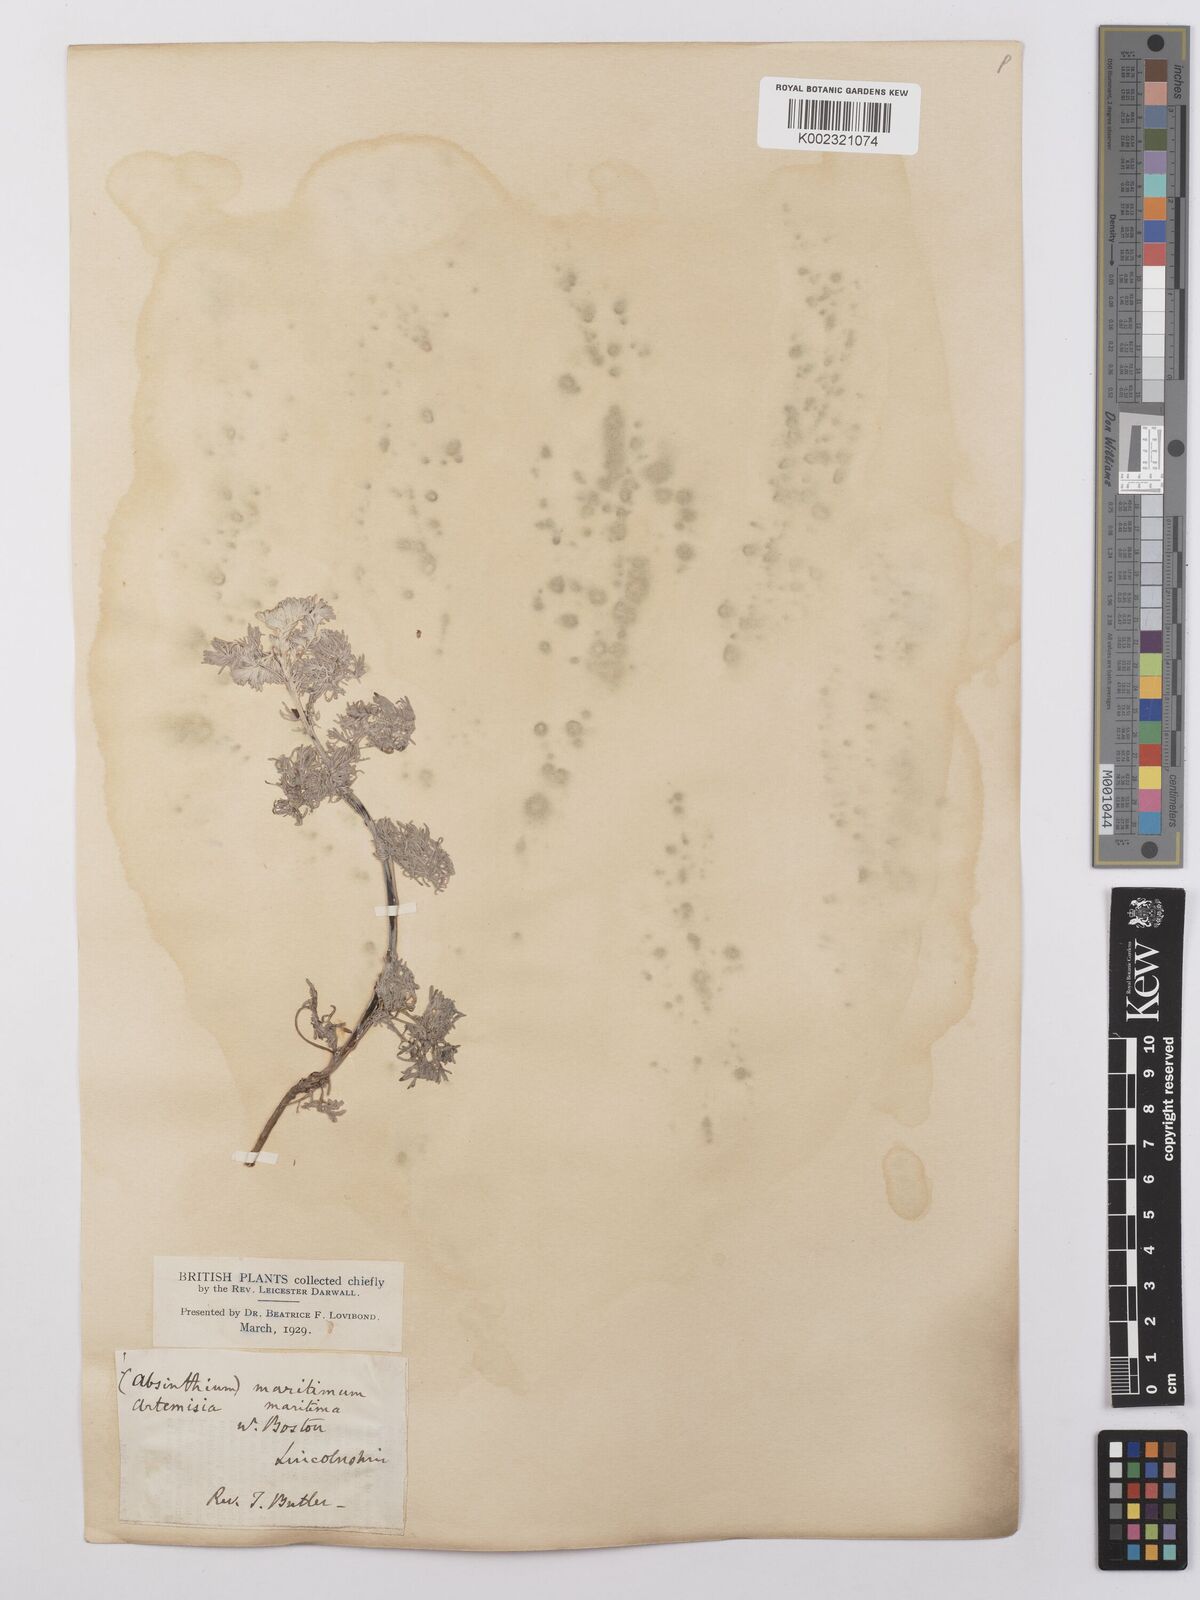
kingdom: Plantae
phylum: Tracheophyta
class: Magnoliopsida
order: Asterales
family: Asteraceae
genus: Artemisia
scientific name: Artemisia maritima
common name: Wormseed
